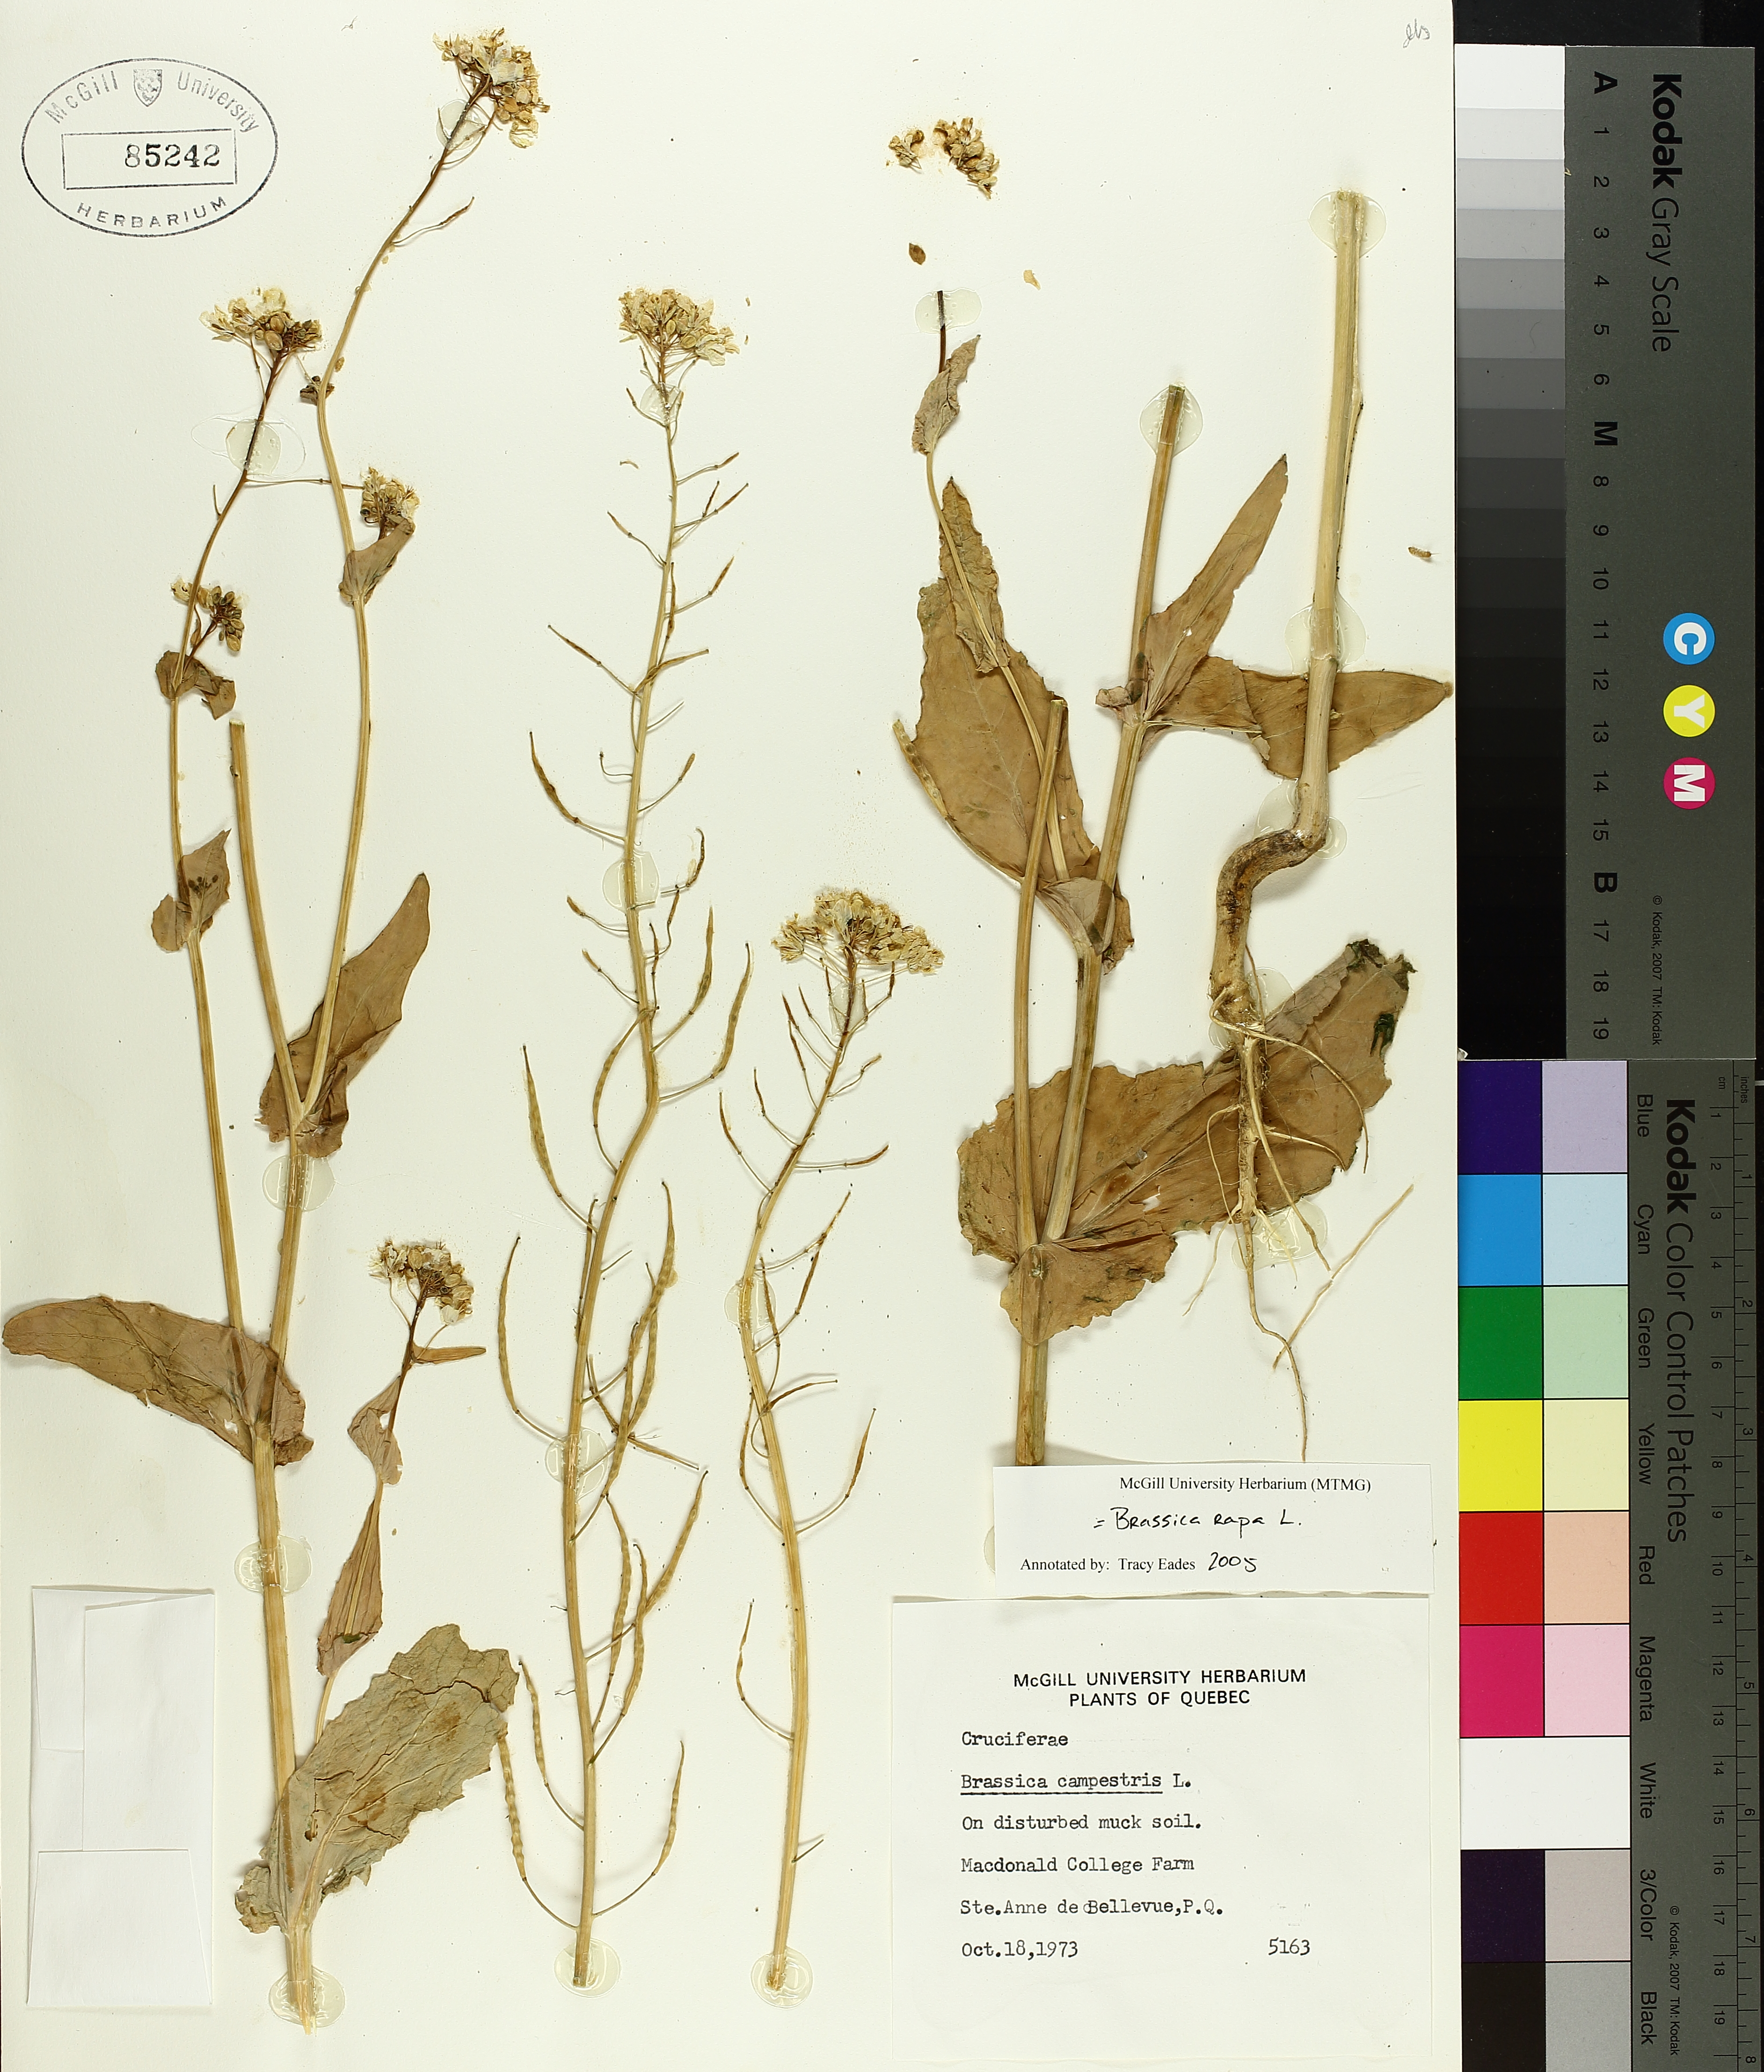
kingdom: Plantae
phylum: Tracheophyta
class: Magnoliopsida
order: Brassicales
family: Brassicaceae
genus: Brassica
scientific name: Brassica rapa
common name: Field mustard
